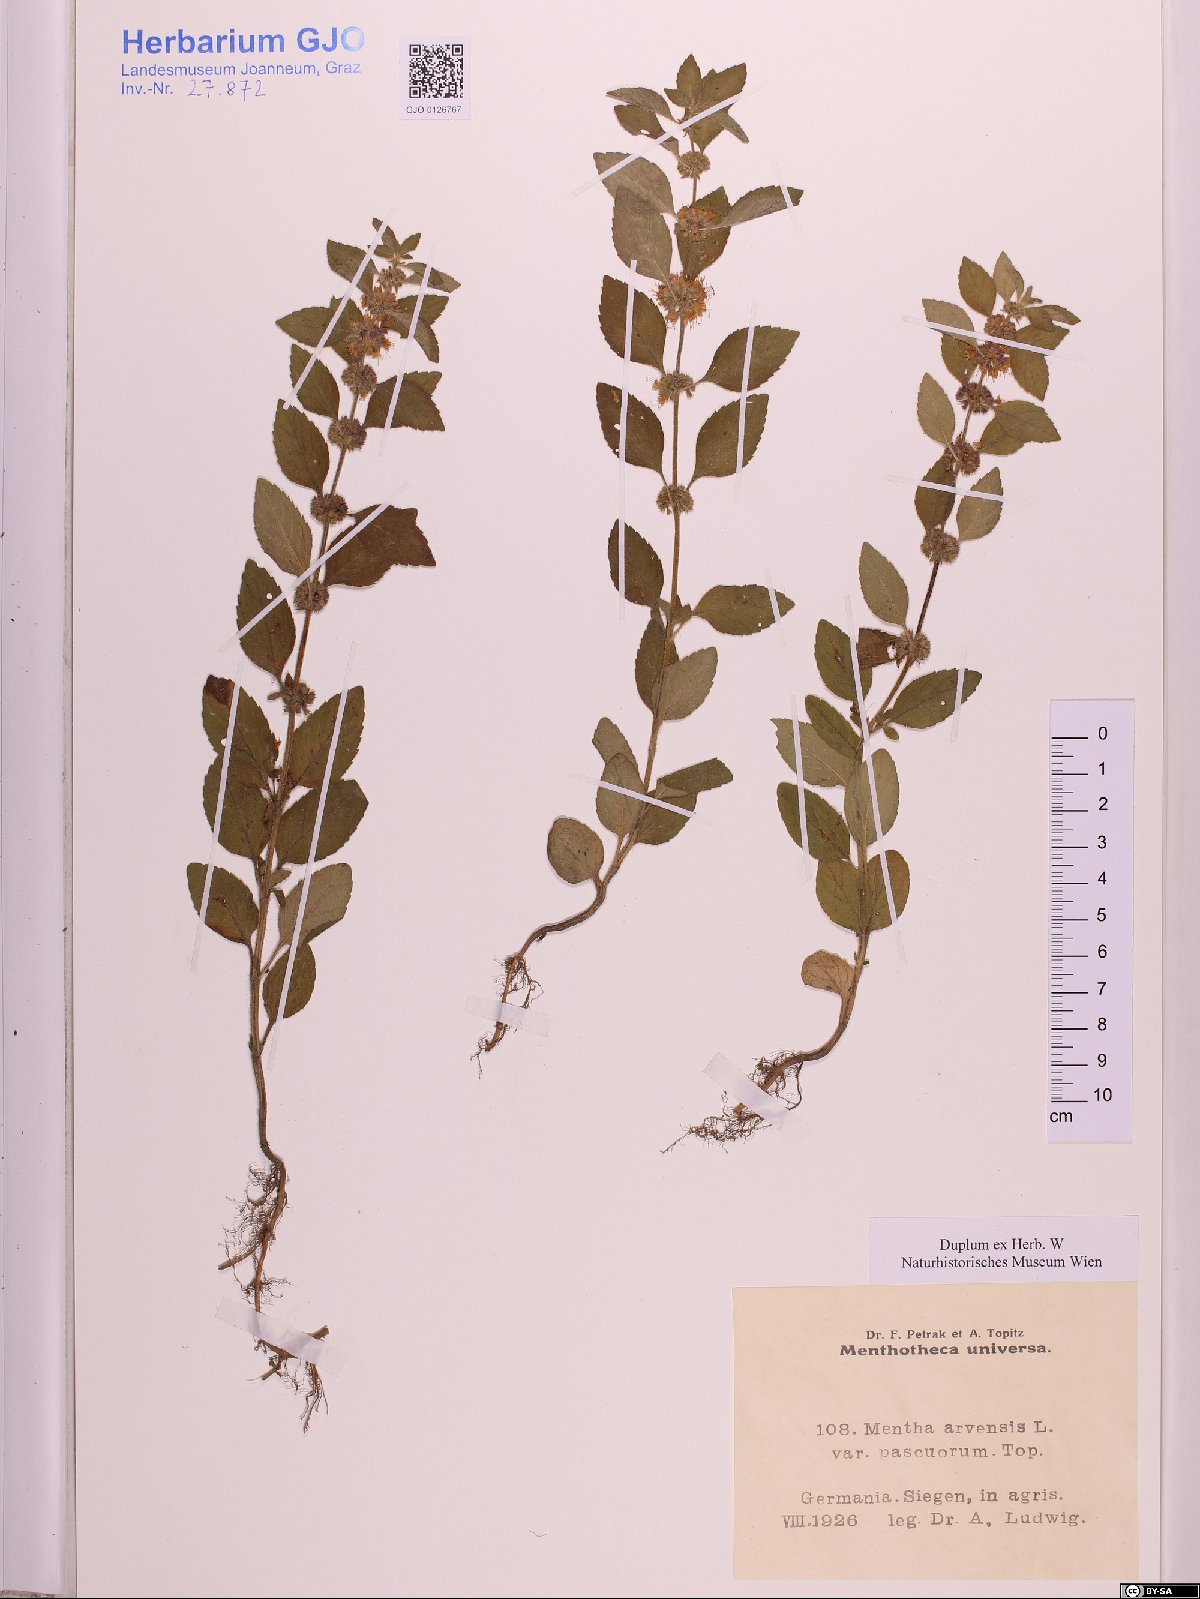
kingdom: Plantae
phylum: Tracheophyta
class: Magnoliopsida
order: Lamiales
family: Lamiaceae
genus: Mentha
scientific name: Mentha arvensis
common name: Corn mint
